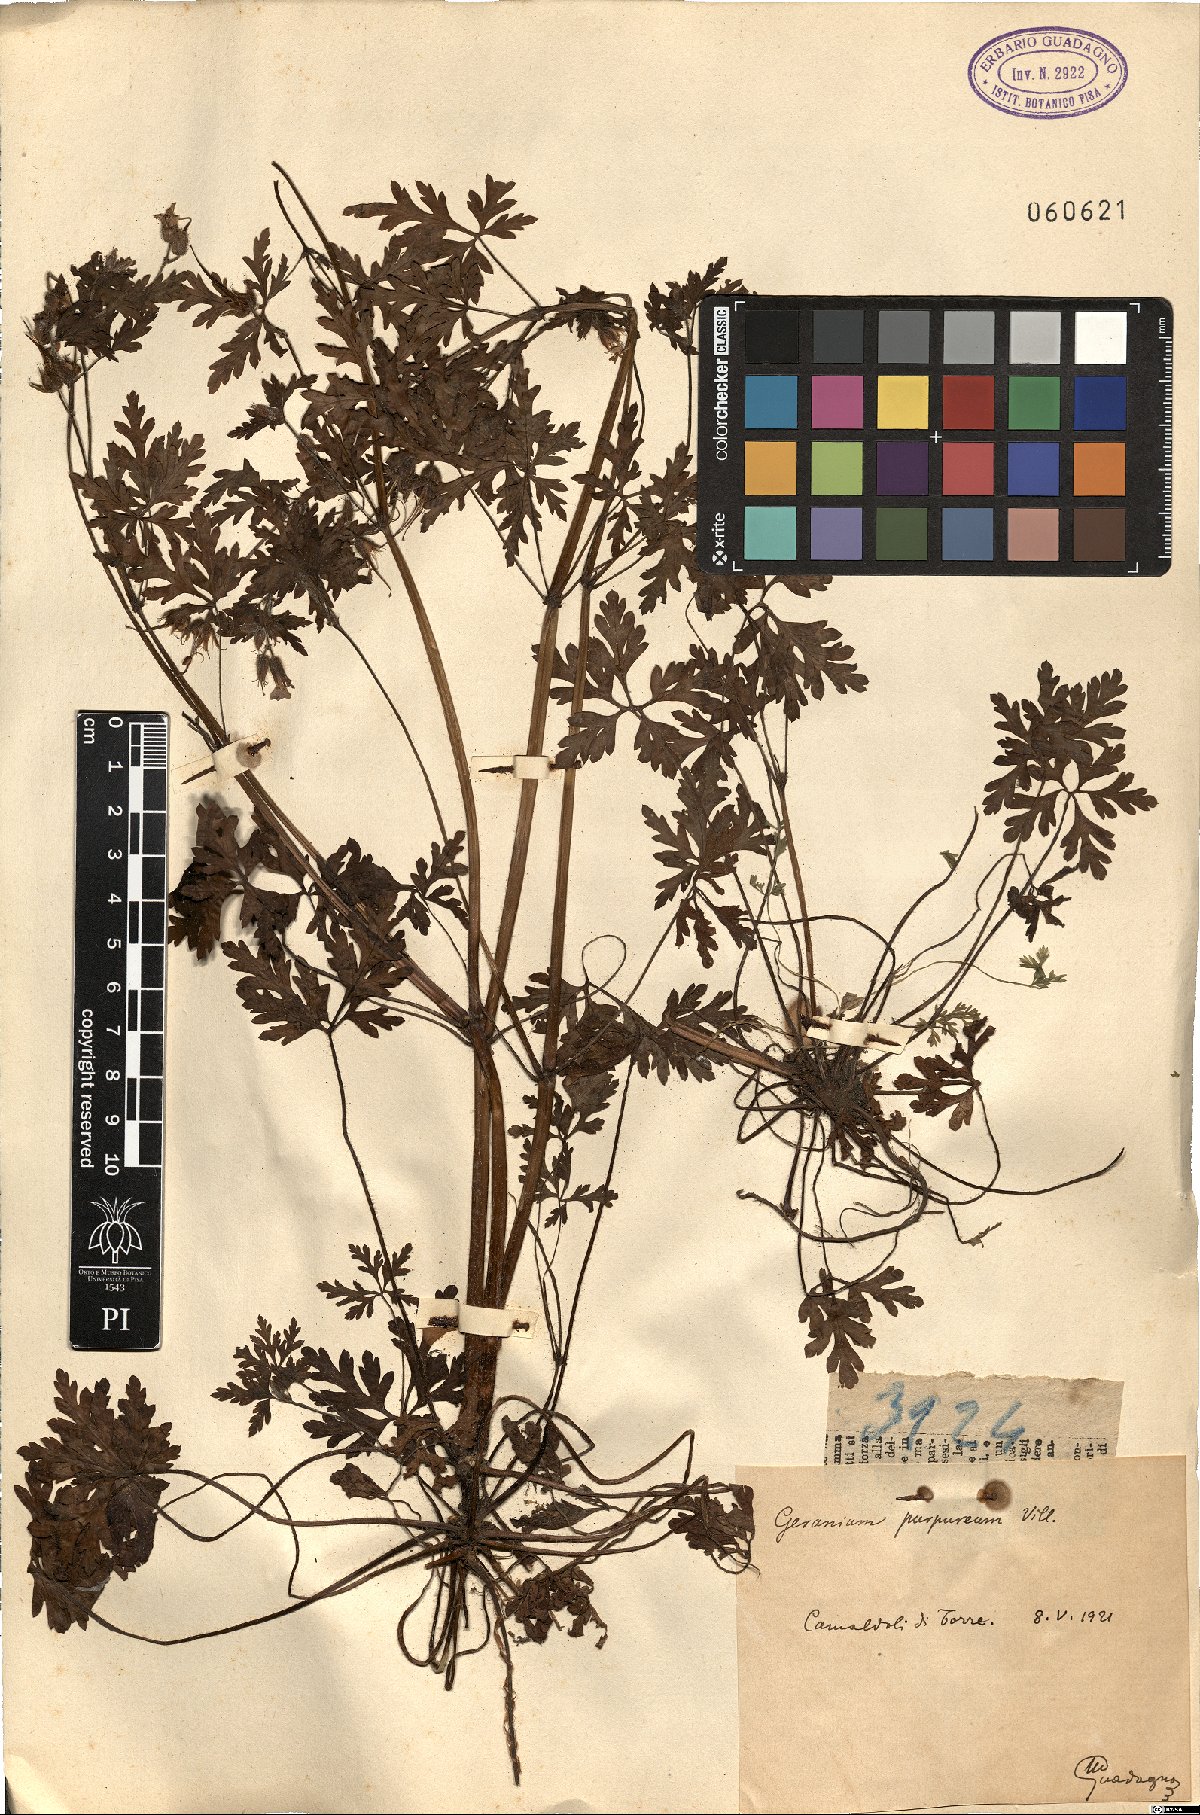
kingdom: Plantae
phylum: Tracheophyta
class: Magnoliopsida
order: Geraniales
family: Geraniaceae
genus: Geranium
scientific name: Geranium purpureum
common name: Little-robin
